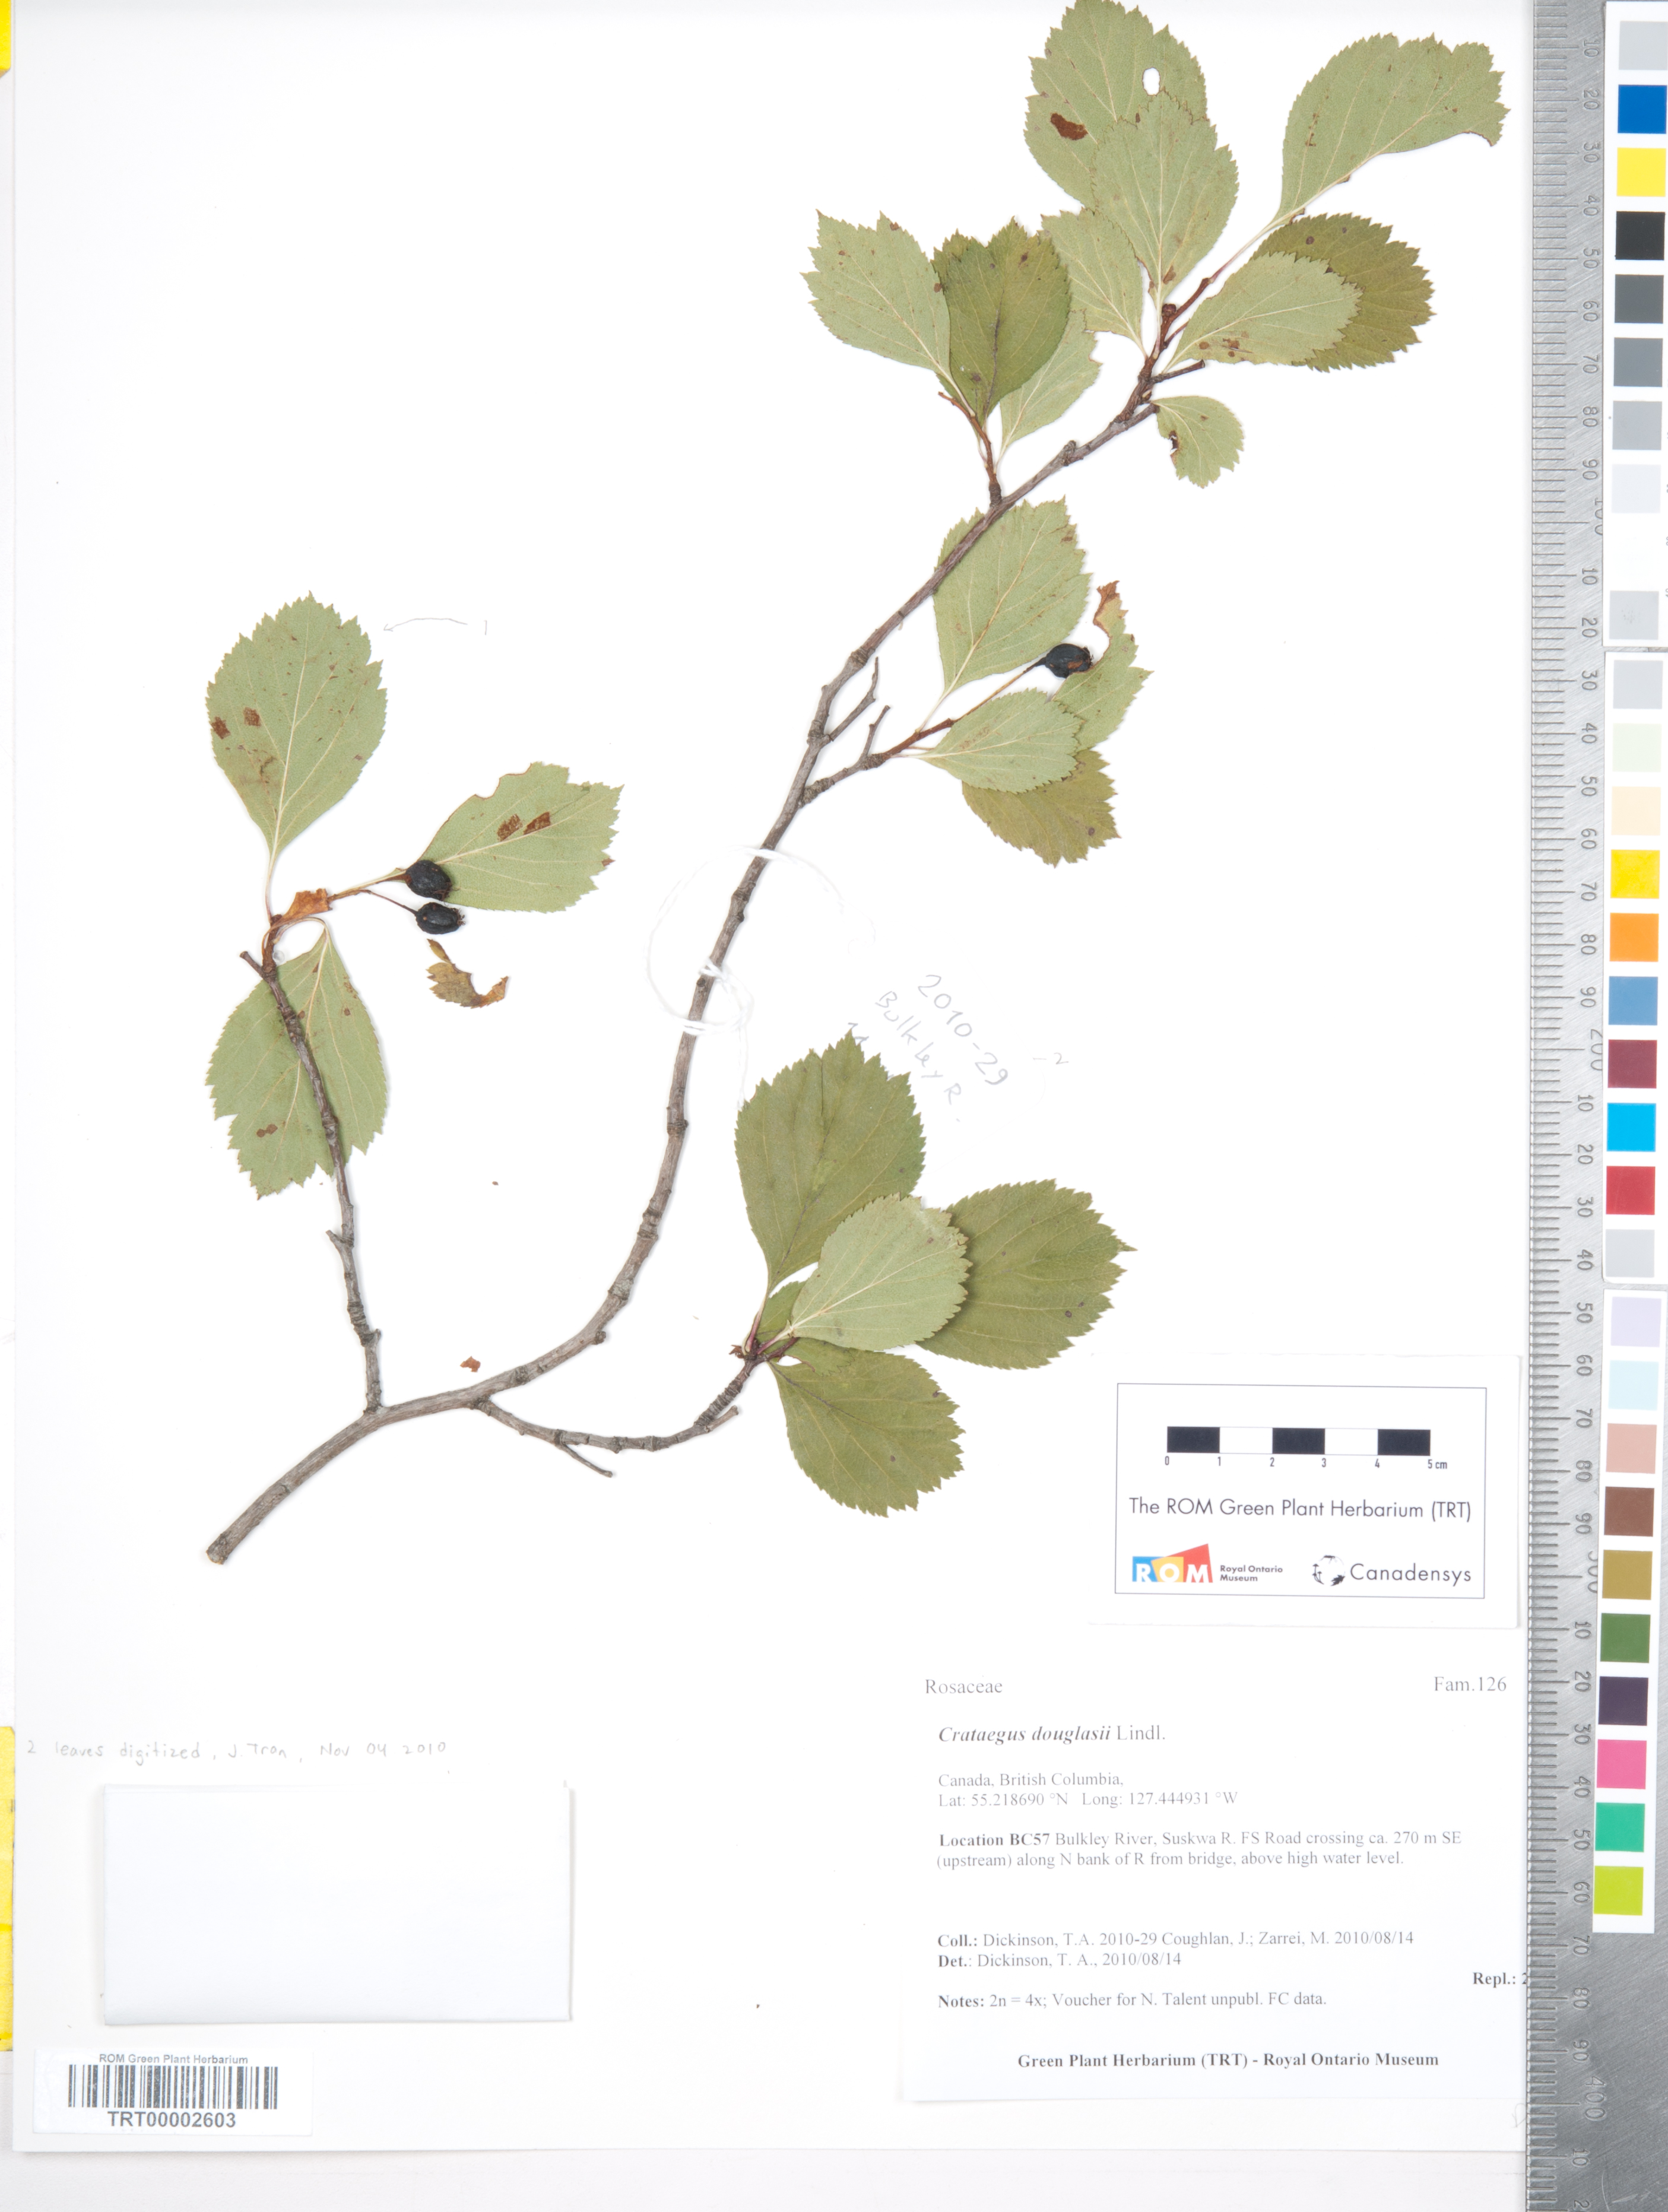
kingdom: Plantae
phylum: Tracheophyta
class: Magnoliopsida
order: Rosales
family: Rosaceae
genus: Crataegus
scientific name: Crataegus douglasii
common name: Black hawthorn
